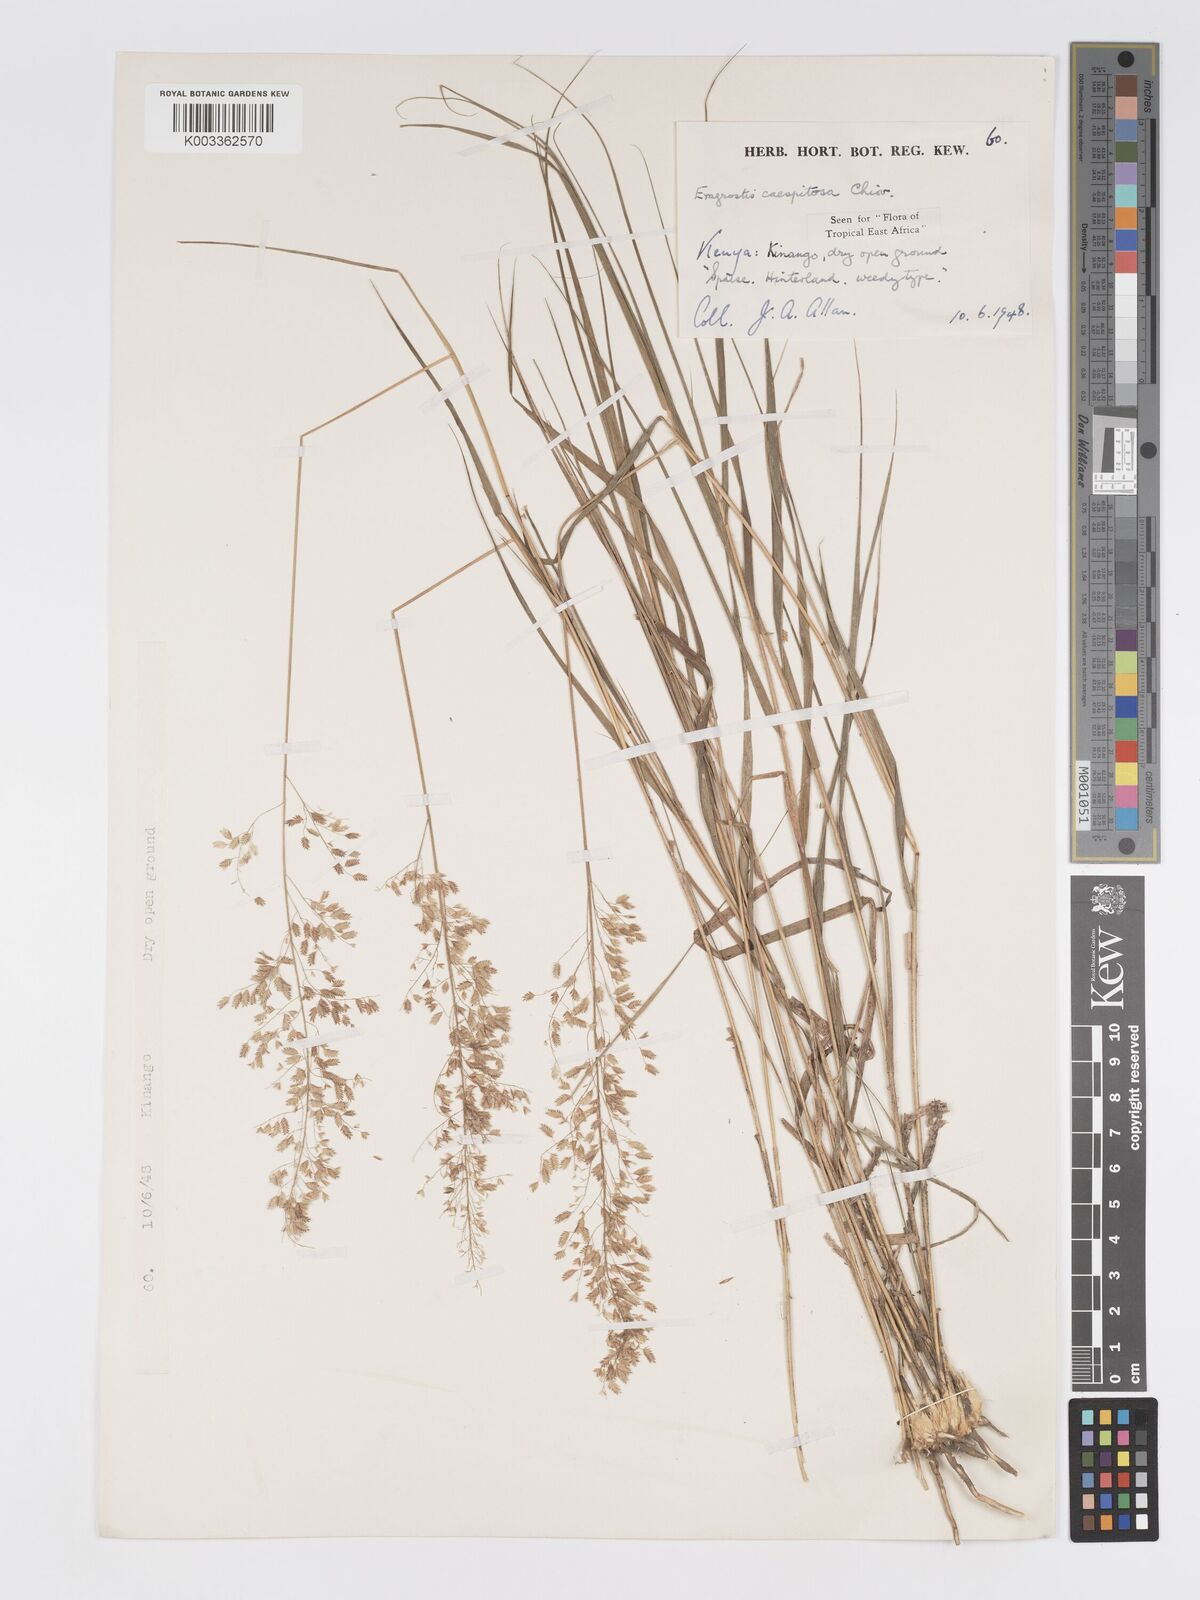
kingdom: Plantae
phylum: Tracheophyta
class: Liliopsida
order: Poales
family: Poaceae
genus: Eragrostis
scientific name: Eragrostis caespitosa
